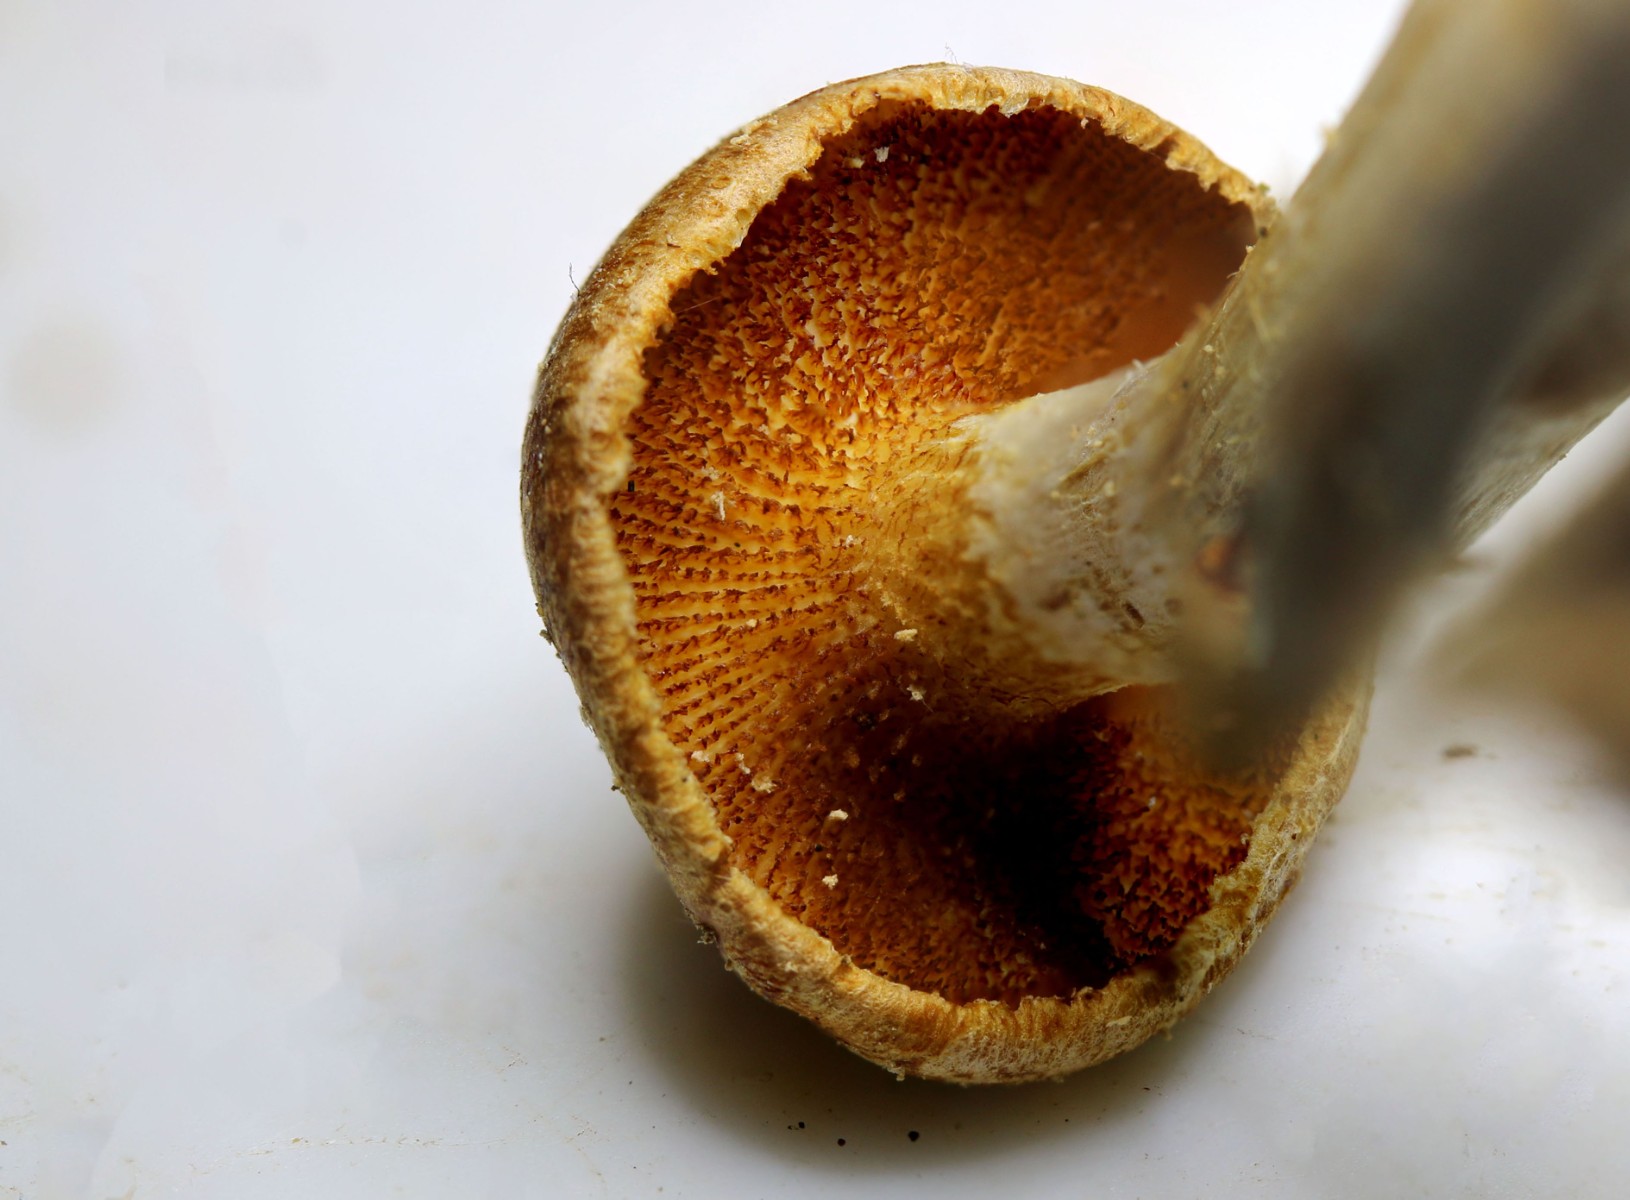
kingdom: Fungi
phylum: Basidiomycota
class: Agaricomycetes
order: Agaricales
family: Hymenogastraceae
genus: Gymnopilus
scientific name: Gymnopilus penetrans
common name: plettet flammehat
